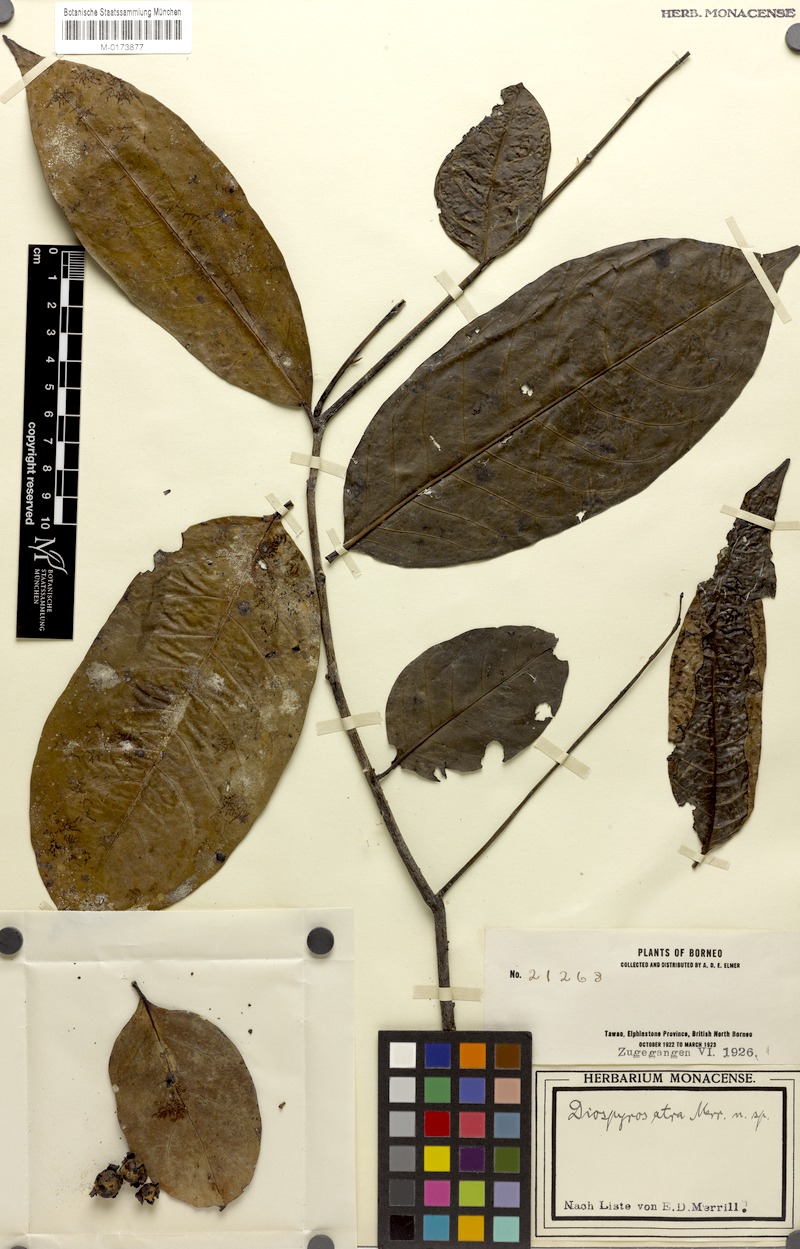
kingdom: Plantae
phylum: Tracheophyta
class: Magnoliopsida
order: Ericales
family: Ebenaceae
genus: Diospyros
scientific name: Diospyros frutescens
